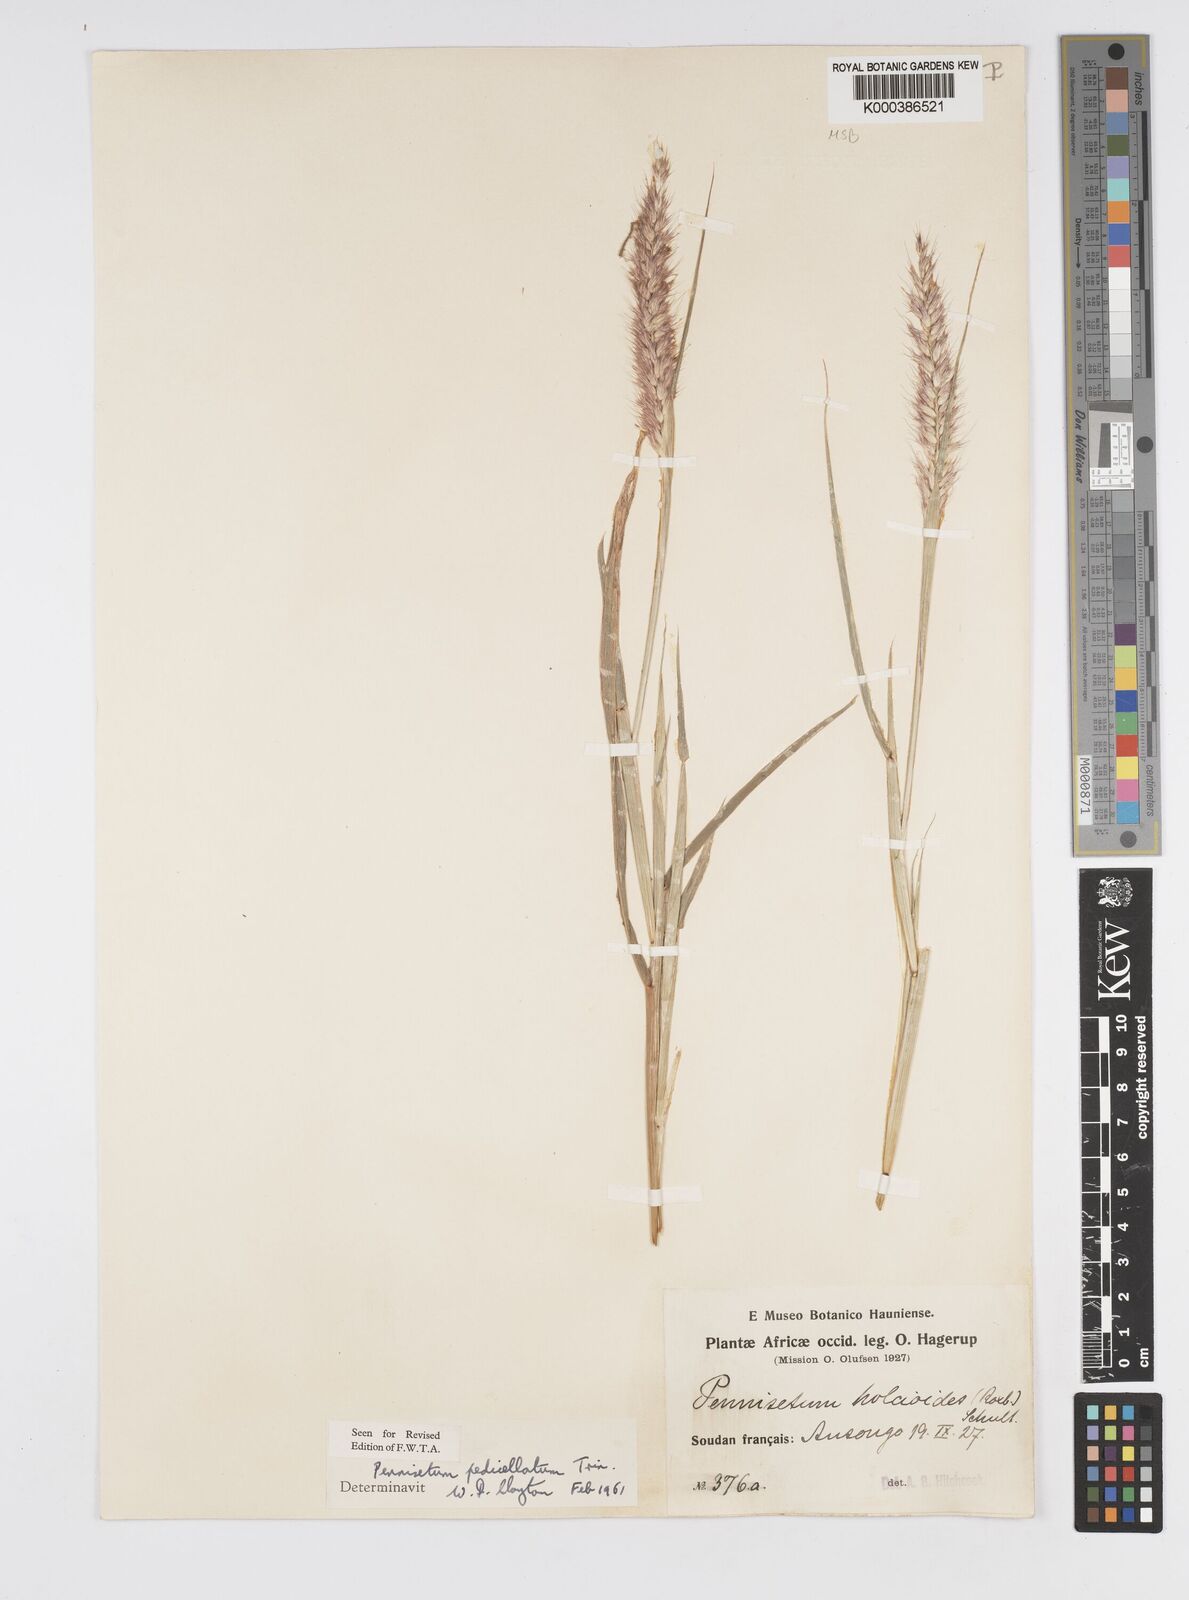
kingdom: Plantae
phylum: Tracheophyta
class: Liliopsida
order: Poales
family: Poaceae
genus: Cenchrus
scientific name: Cenchrus pedicellatus
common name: Hairy fountain grass
